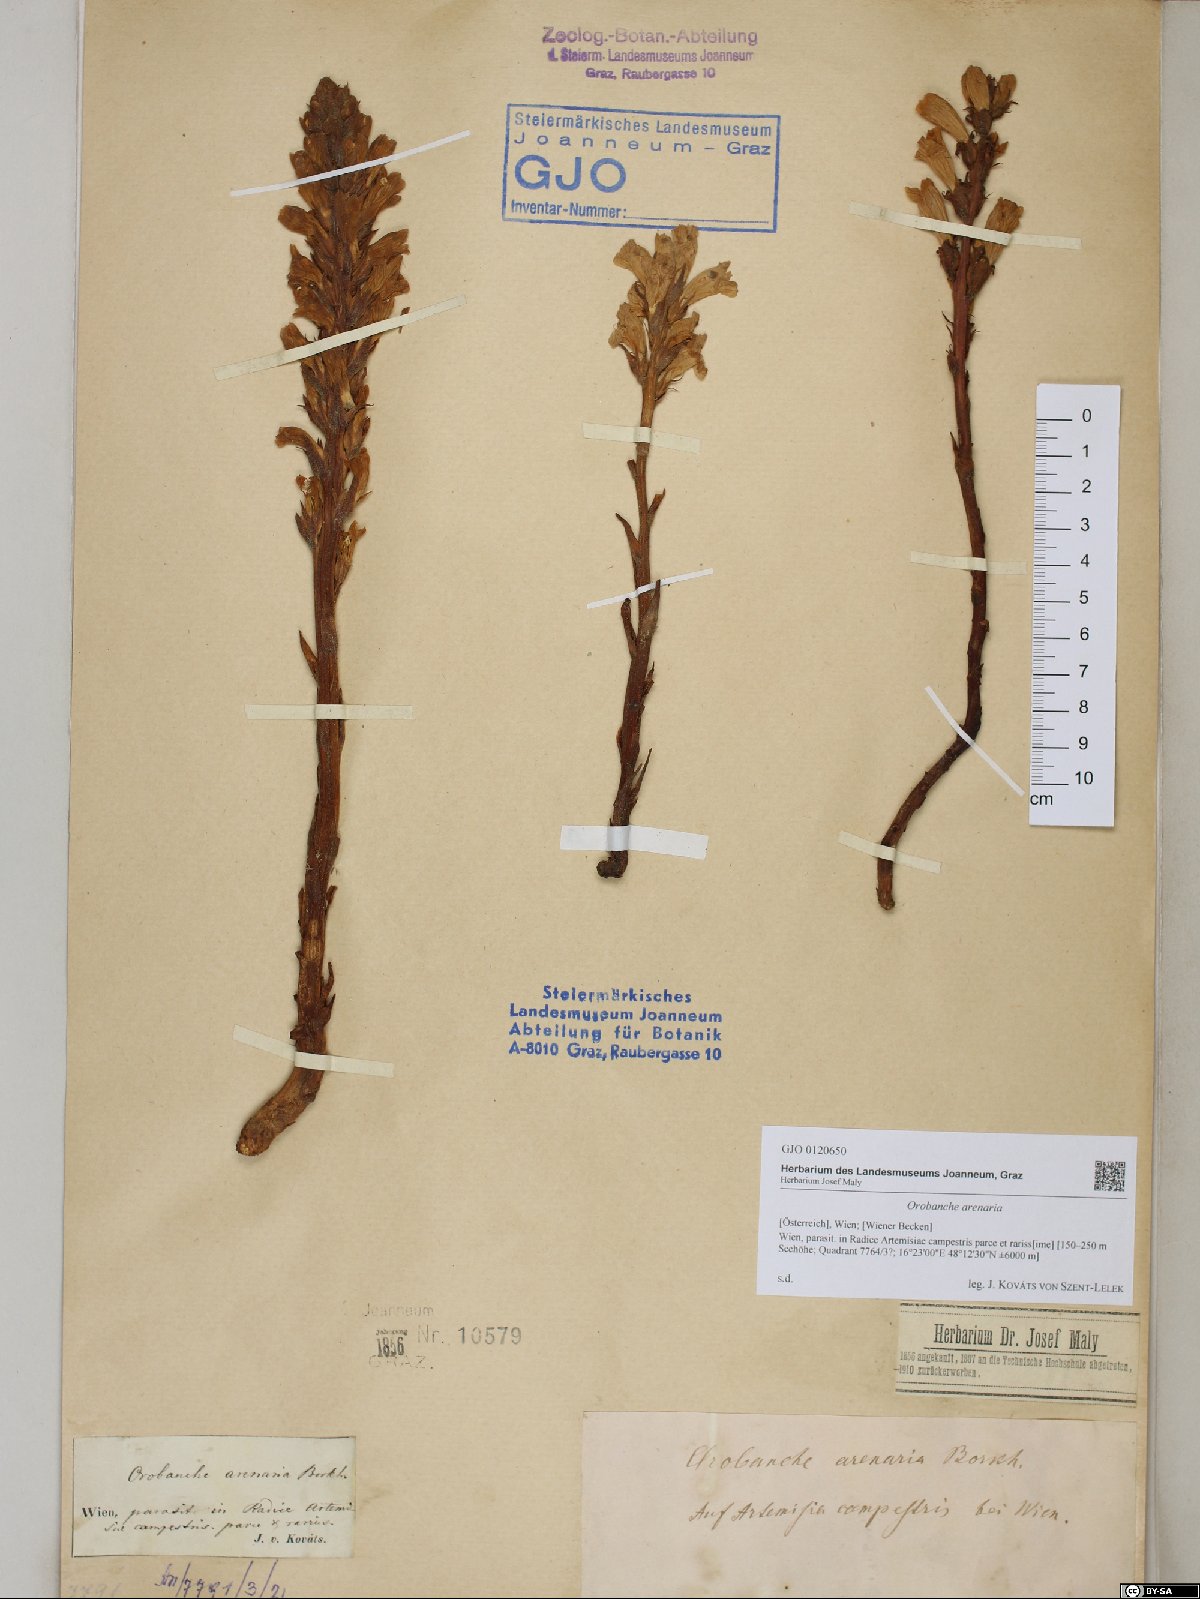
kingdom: Plantae
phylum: Tracheophyta
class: Magnoliopsida
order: Lamiales
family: Orobanchaceae
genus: Phelipanche
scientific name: Phelipanche arenaria
